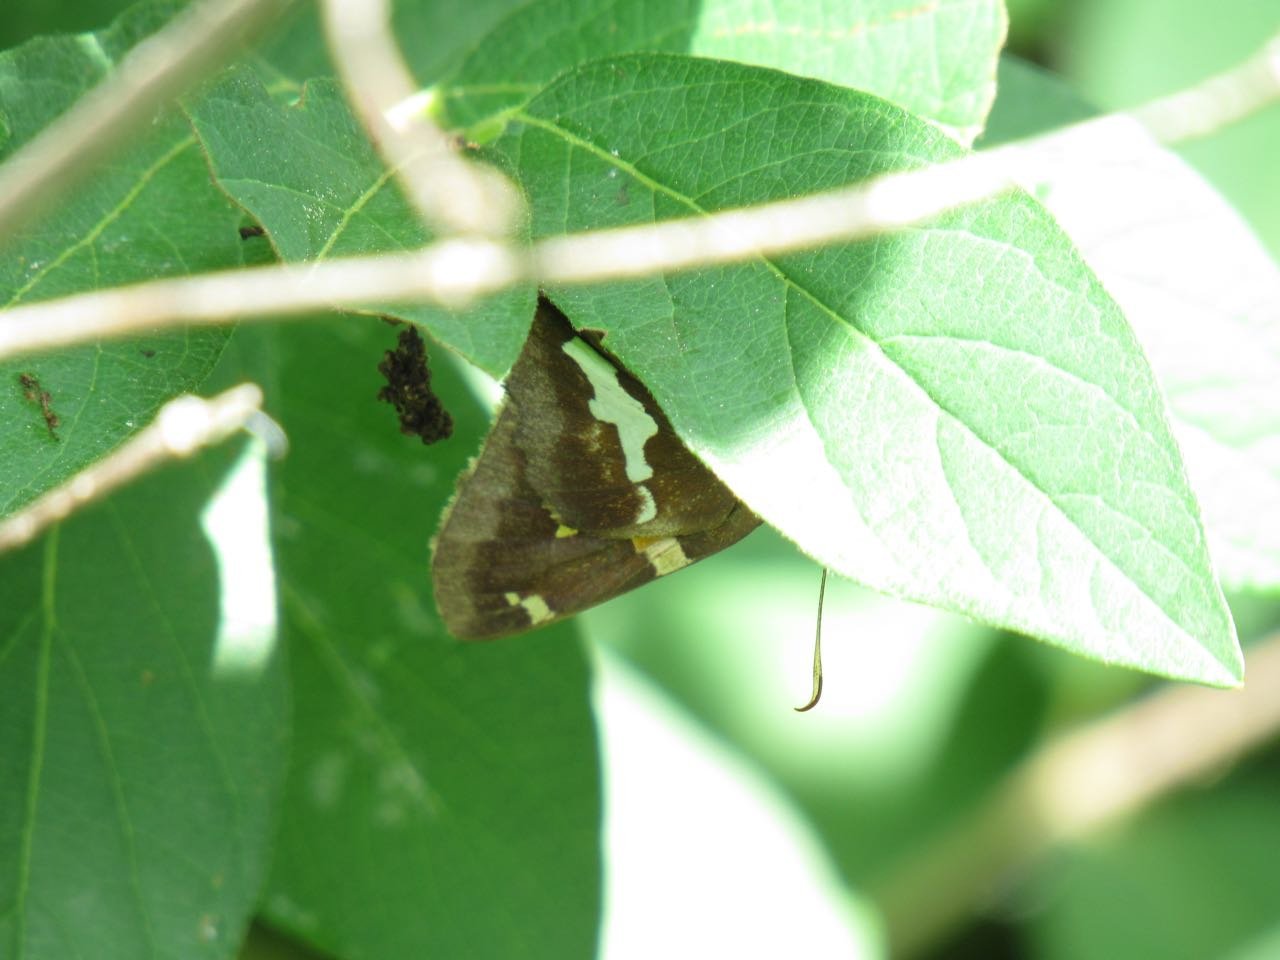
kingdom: Animalia
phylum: Arthropoda
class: Insecta
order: Lepidoptera
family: Hesperiidae
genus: Epargyreus
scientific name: Epargyreus clarus
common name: Silver-spotted Skipper
